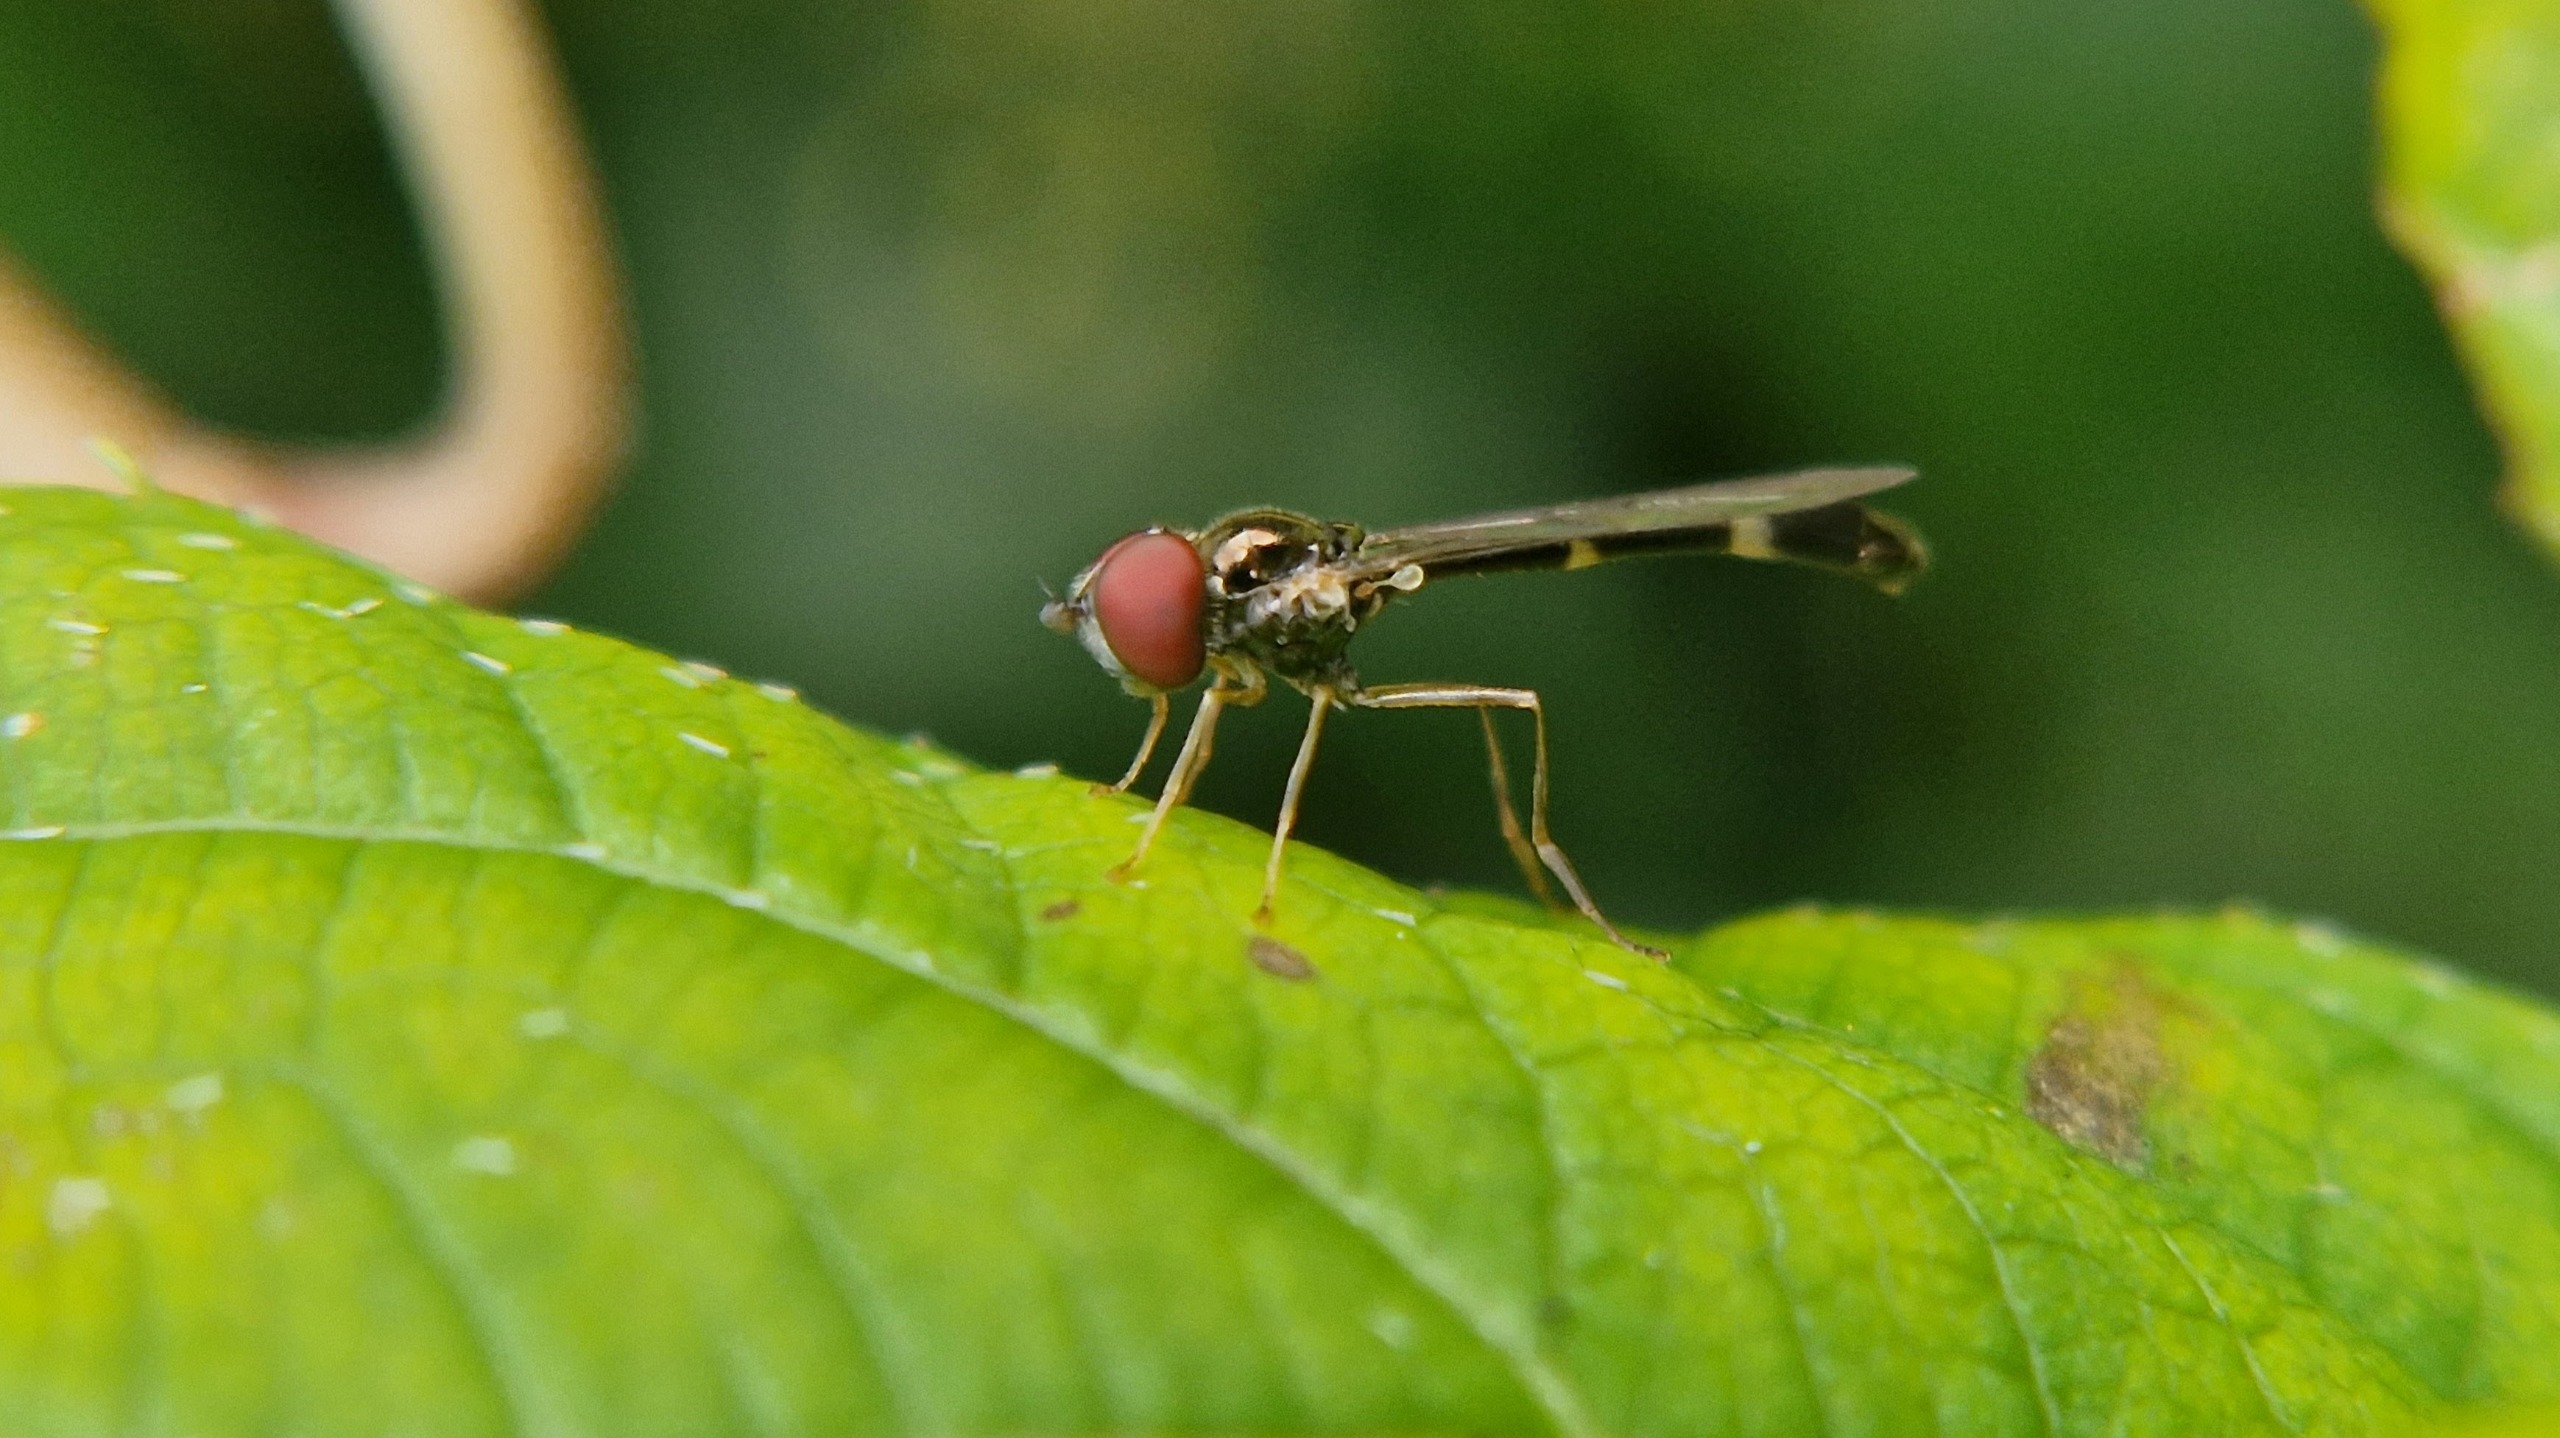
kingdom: Animalia
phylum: Arthropoda
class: Insecta
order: Diptera
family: Syrphidae
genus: Baccha
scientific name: Baccha elongata
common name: Mat spydsvirreflue
